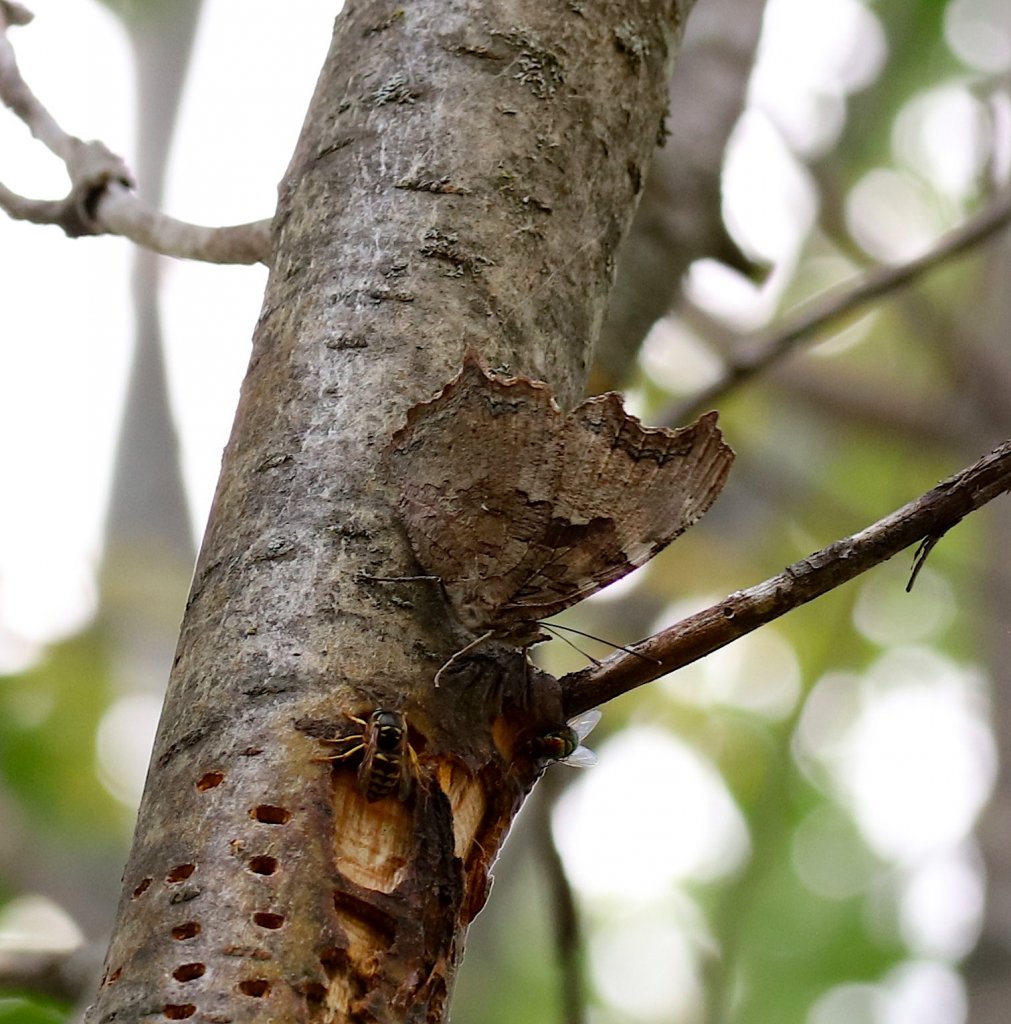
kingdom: Animalia
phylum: Arthropoda
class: Insecta
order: Lepidoptera
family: Nymphalidae
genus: Polygonia
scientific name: Polygonia vaualbum
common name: Compton Tortoiseshell
